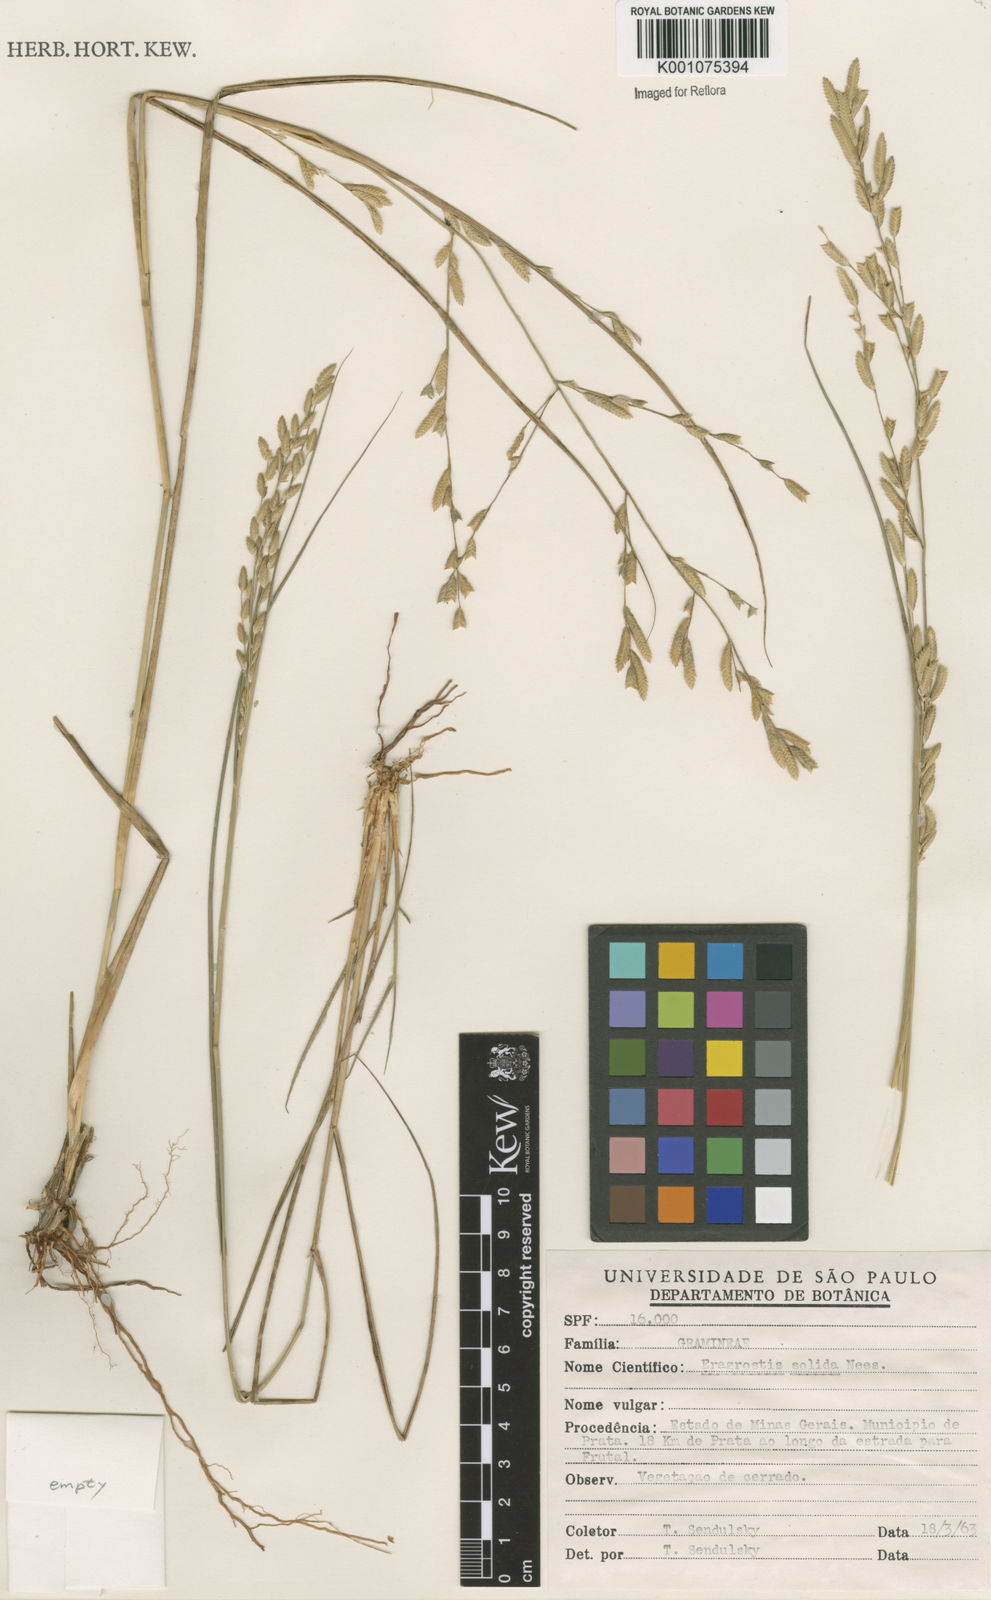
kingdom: Plantae
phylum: Tracheophyta
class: Liliopsida
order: Poales
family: Poaceae
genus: Eragrostis
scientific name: Eragrostis solida
